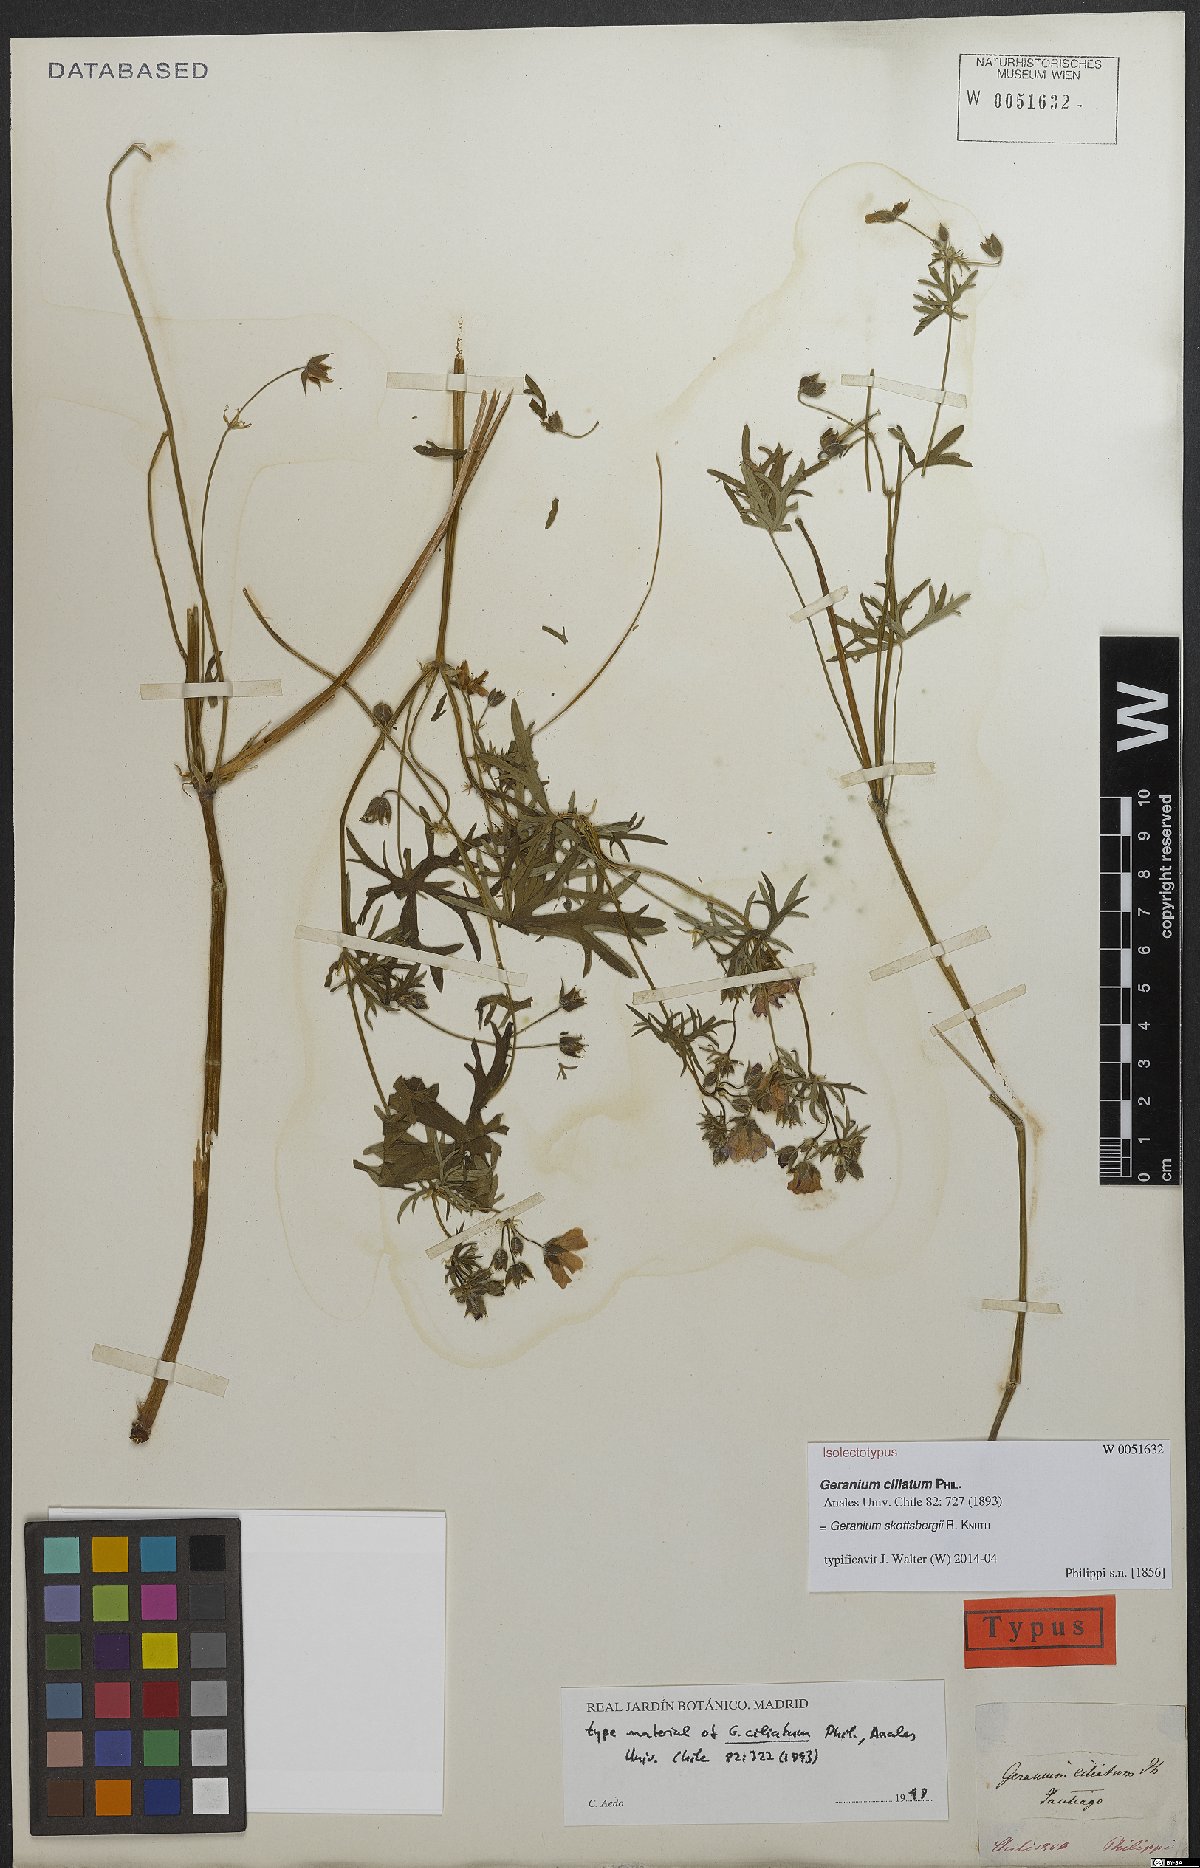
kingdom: Plantae
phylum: Tracheophyta
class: Magnoliopsida
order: Geraniales
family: Geraniaceae
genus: Geranium
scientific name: Geranium skottsbergii
